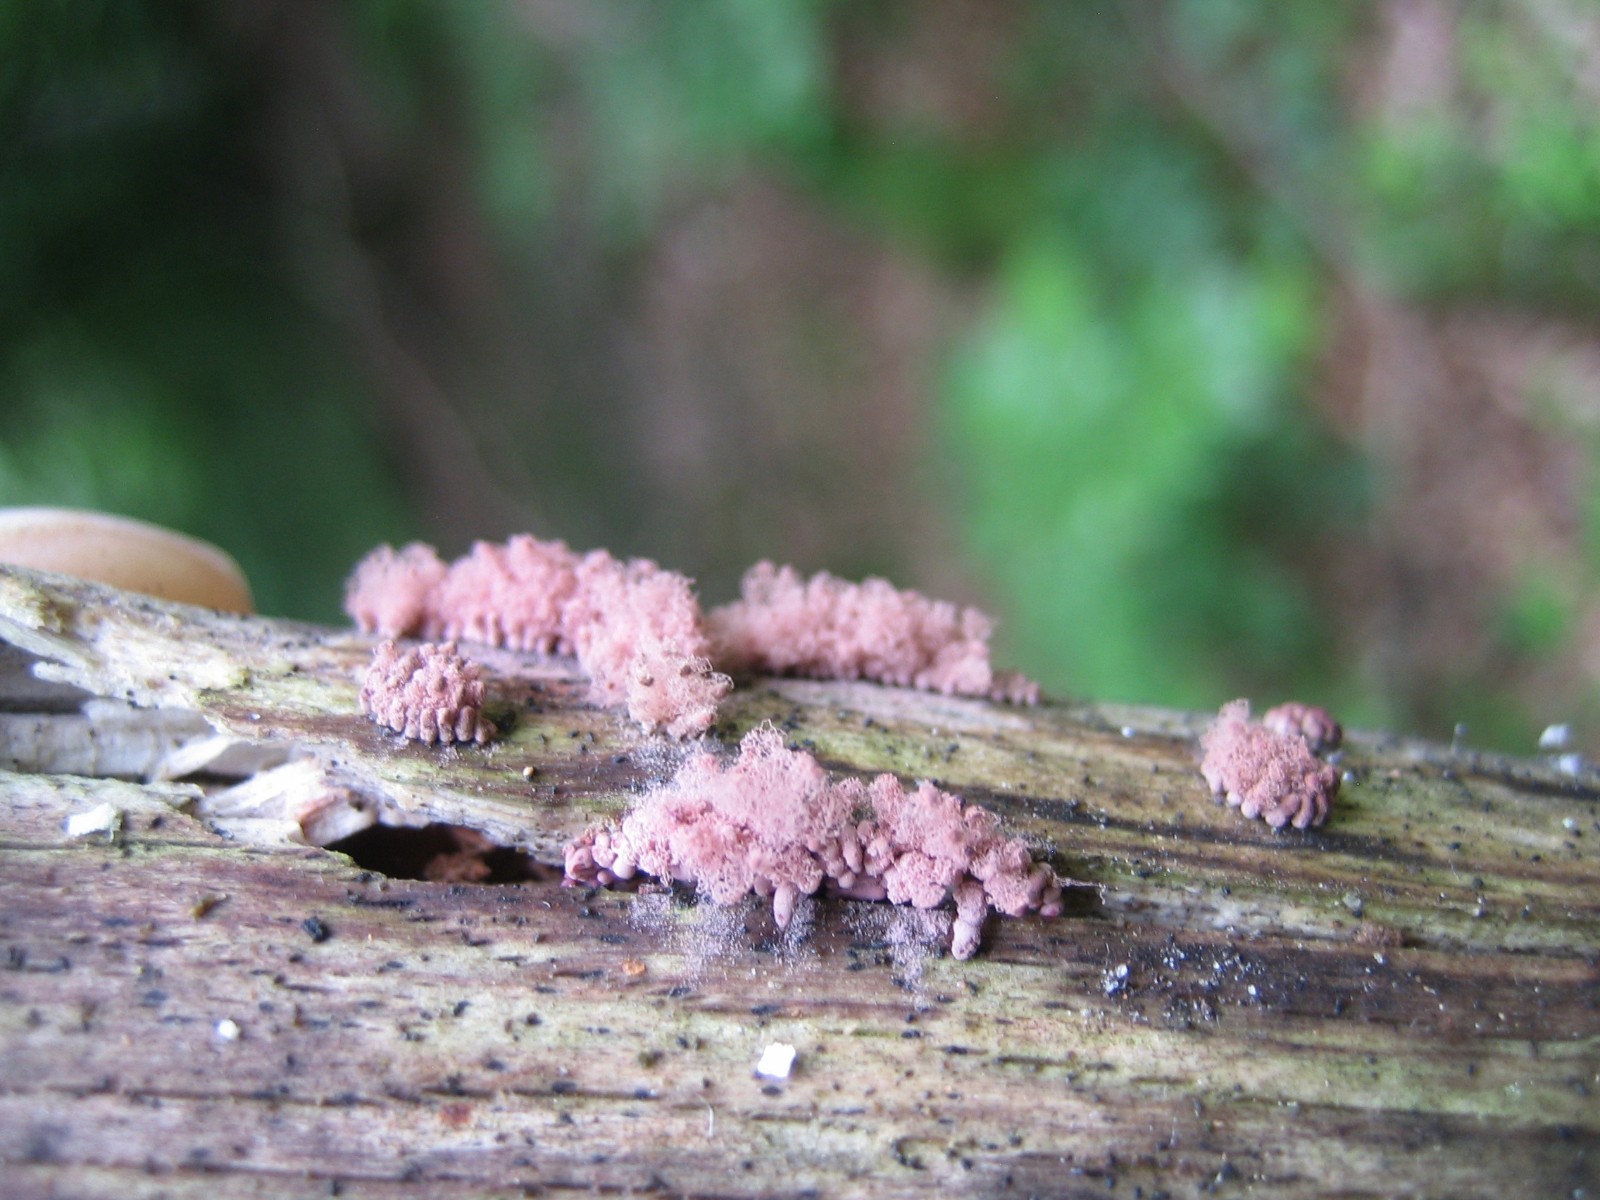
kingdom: Protozoa
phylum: Amoebozoa
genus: Arcyria
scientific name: Arcyria
